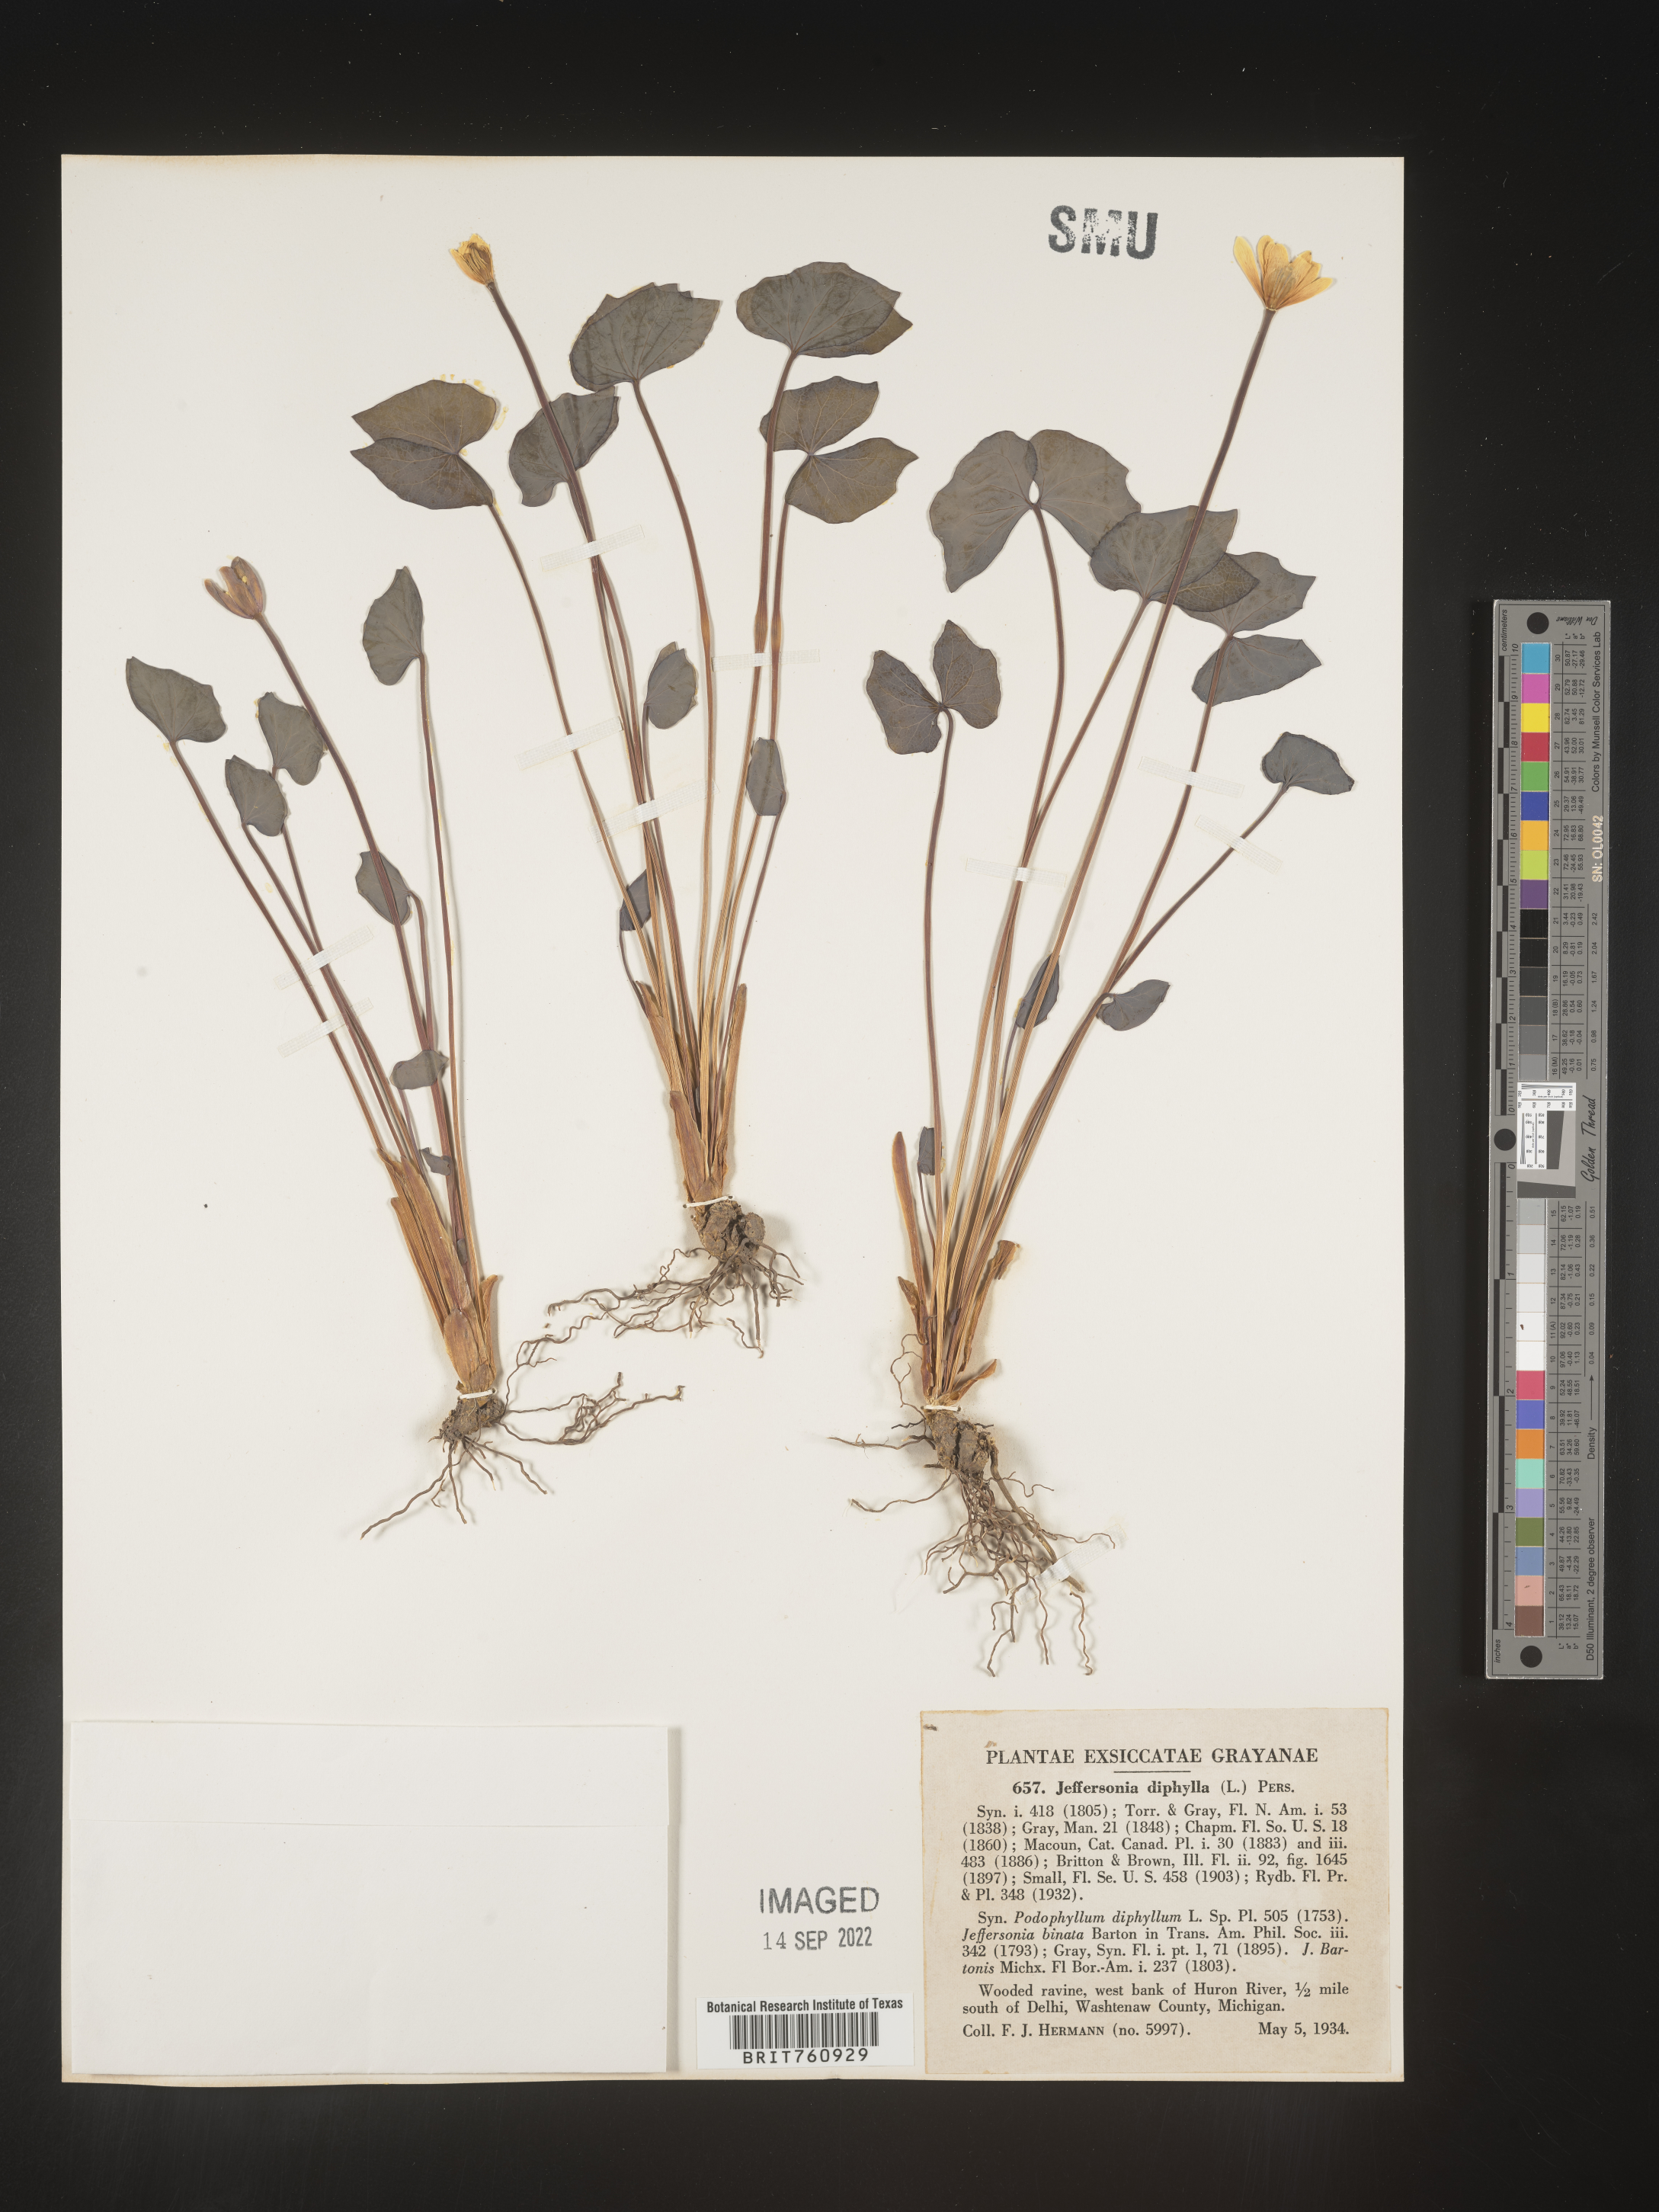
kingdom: Plantae
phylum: Tracheophyta
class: Magnoliopsida
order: Ranunculales
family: Berberidaceae
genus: Jeffersonia
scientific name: Jeffersonia
